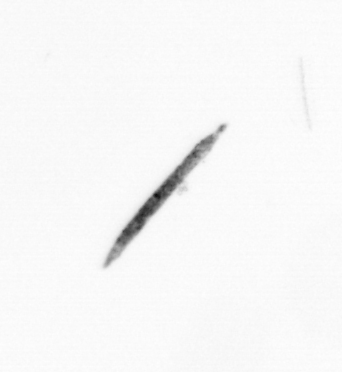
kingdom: Bacteria
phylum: Cyanobacteria
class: Cyanobacteriia
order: Cyanobacteriales
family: Microcoleaceae
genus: Trichodesmium
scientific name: Trichodesmium
